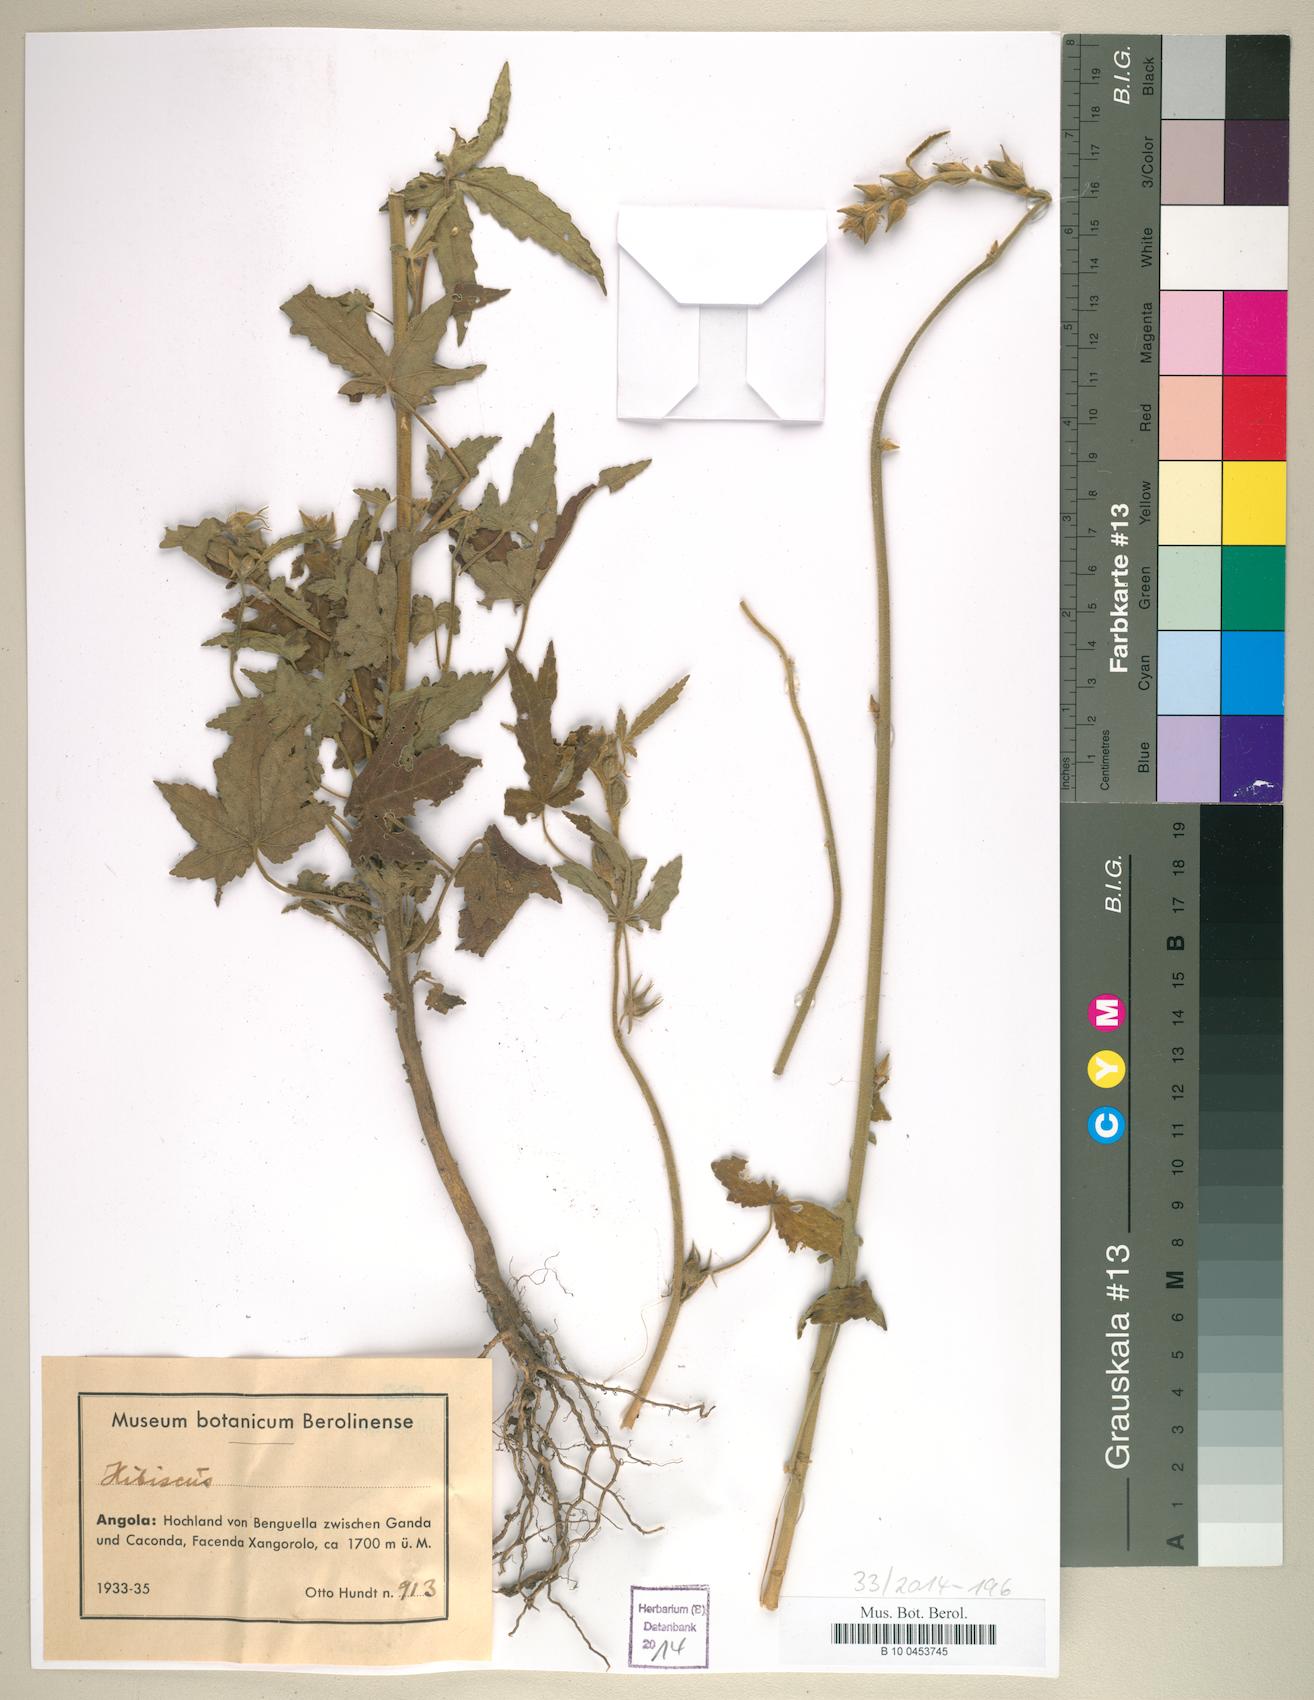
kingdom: Plantae
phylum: Tracheophyta
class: Magnoliopsida
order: Malvales
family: Malvaceae
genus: Hibiscus
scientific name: Hibiscus
